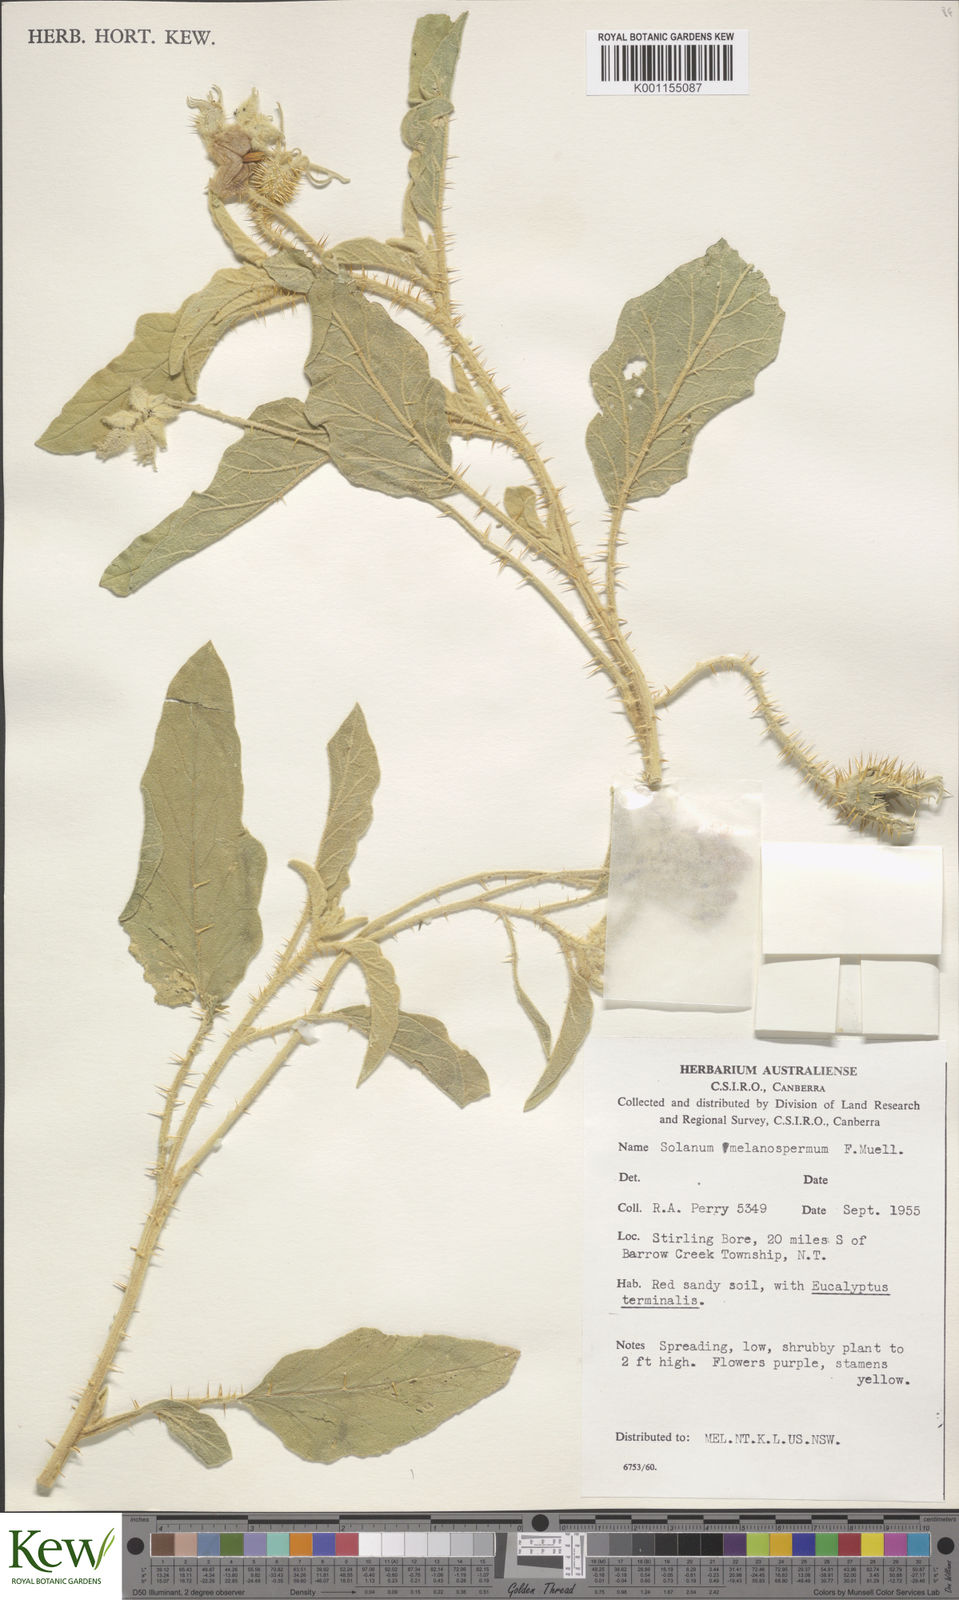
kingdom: Plantae
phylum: Tracheophyta
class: Magnoliopsida
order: Solanales
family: Solanaceae
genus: Solanum
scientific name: Solanum melanospermum
